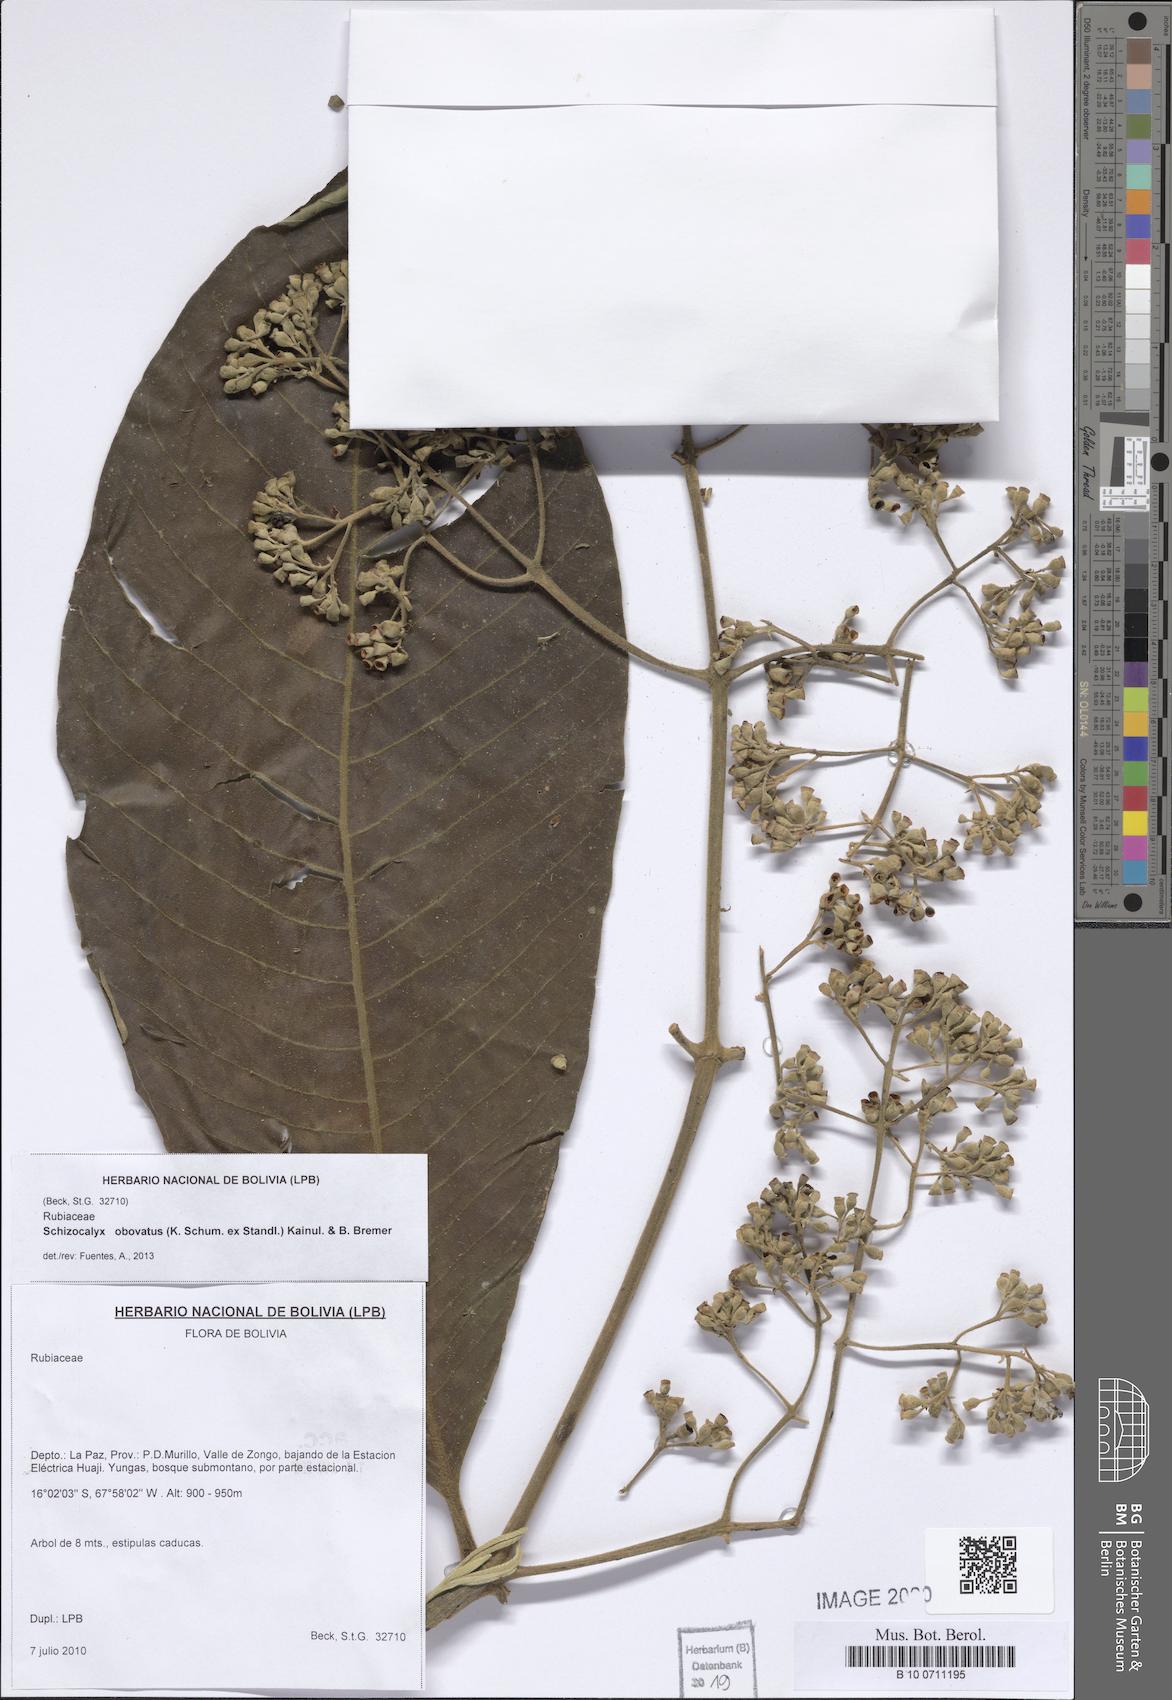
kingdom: Plantae
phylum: Tracheophyta
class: Magnoliopsida
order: Gentianales
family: Rubiaceae
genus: Schizocalyx
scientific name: Schizocalyx obovatus
